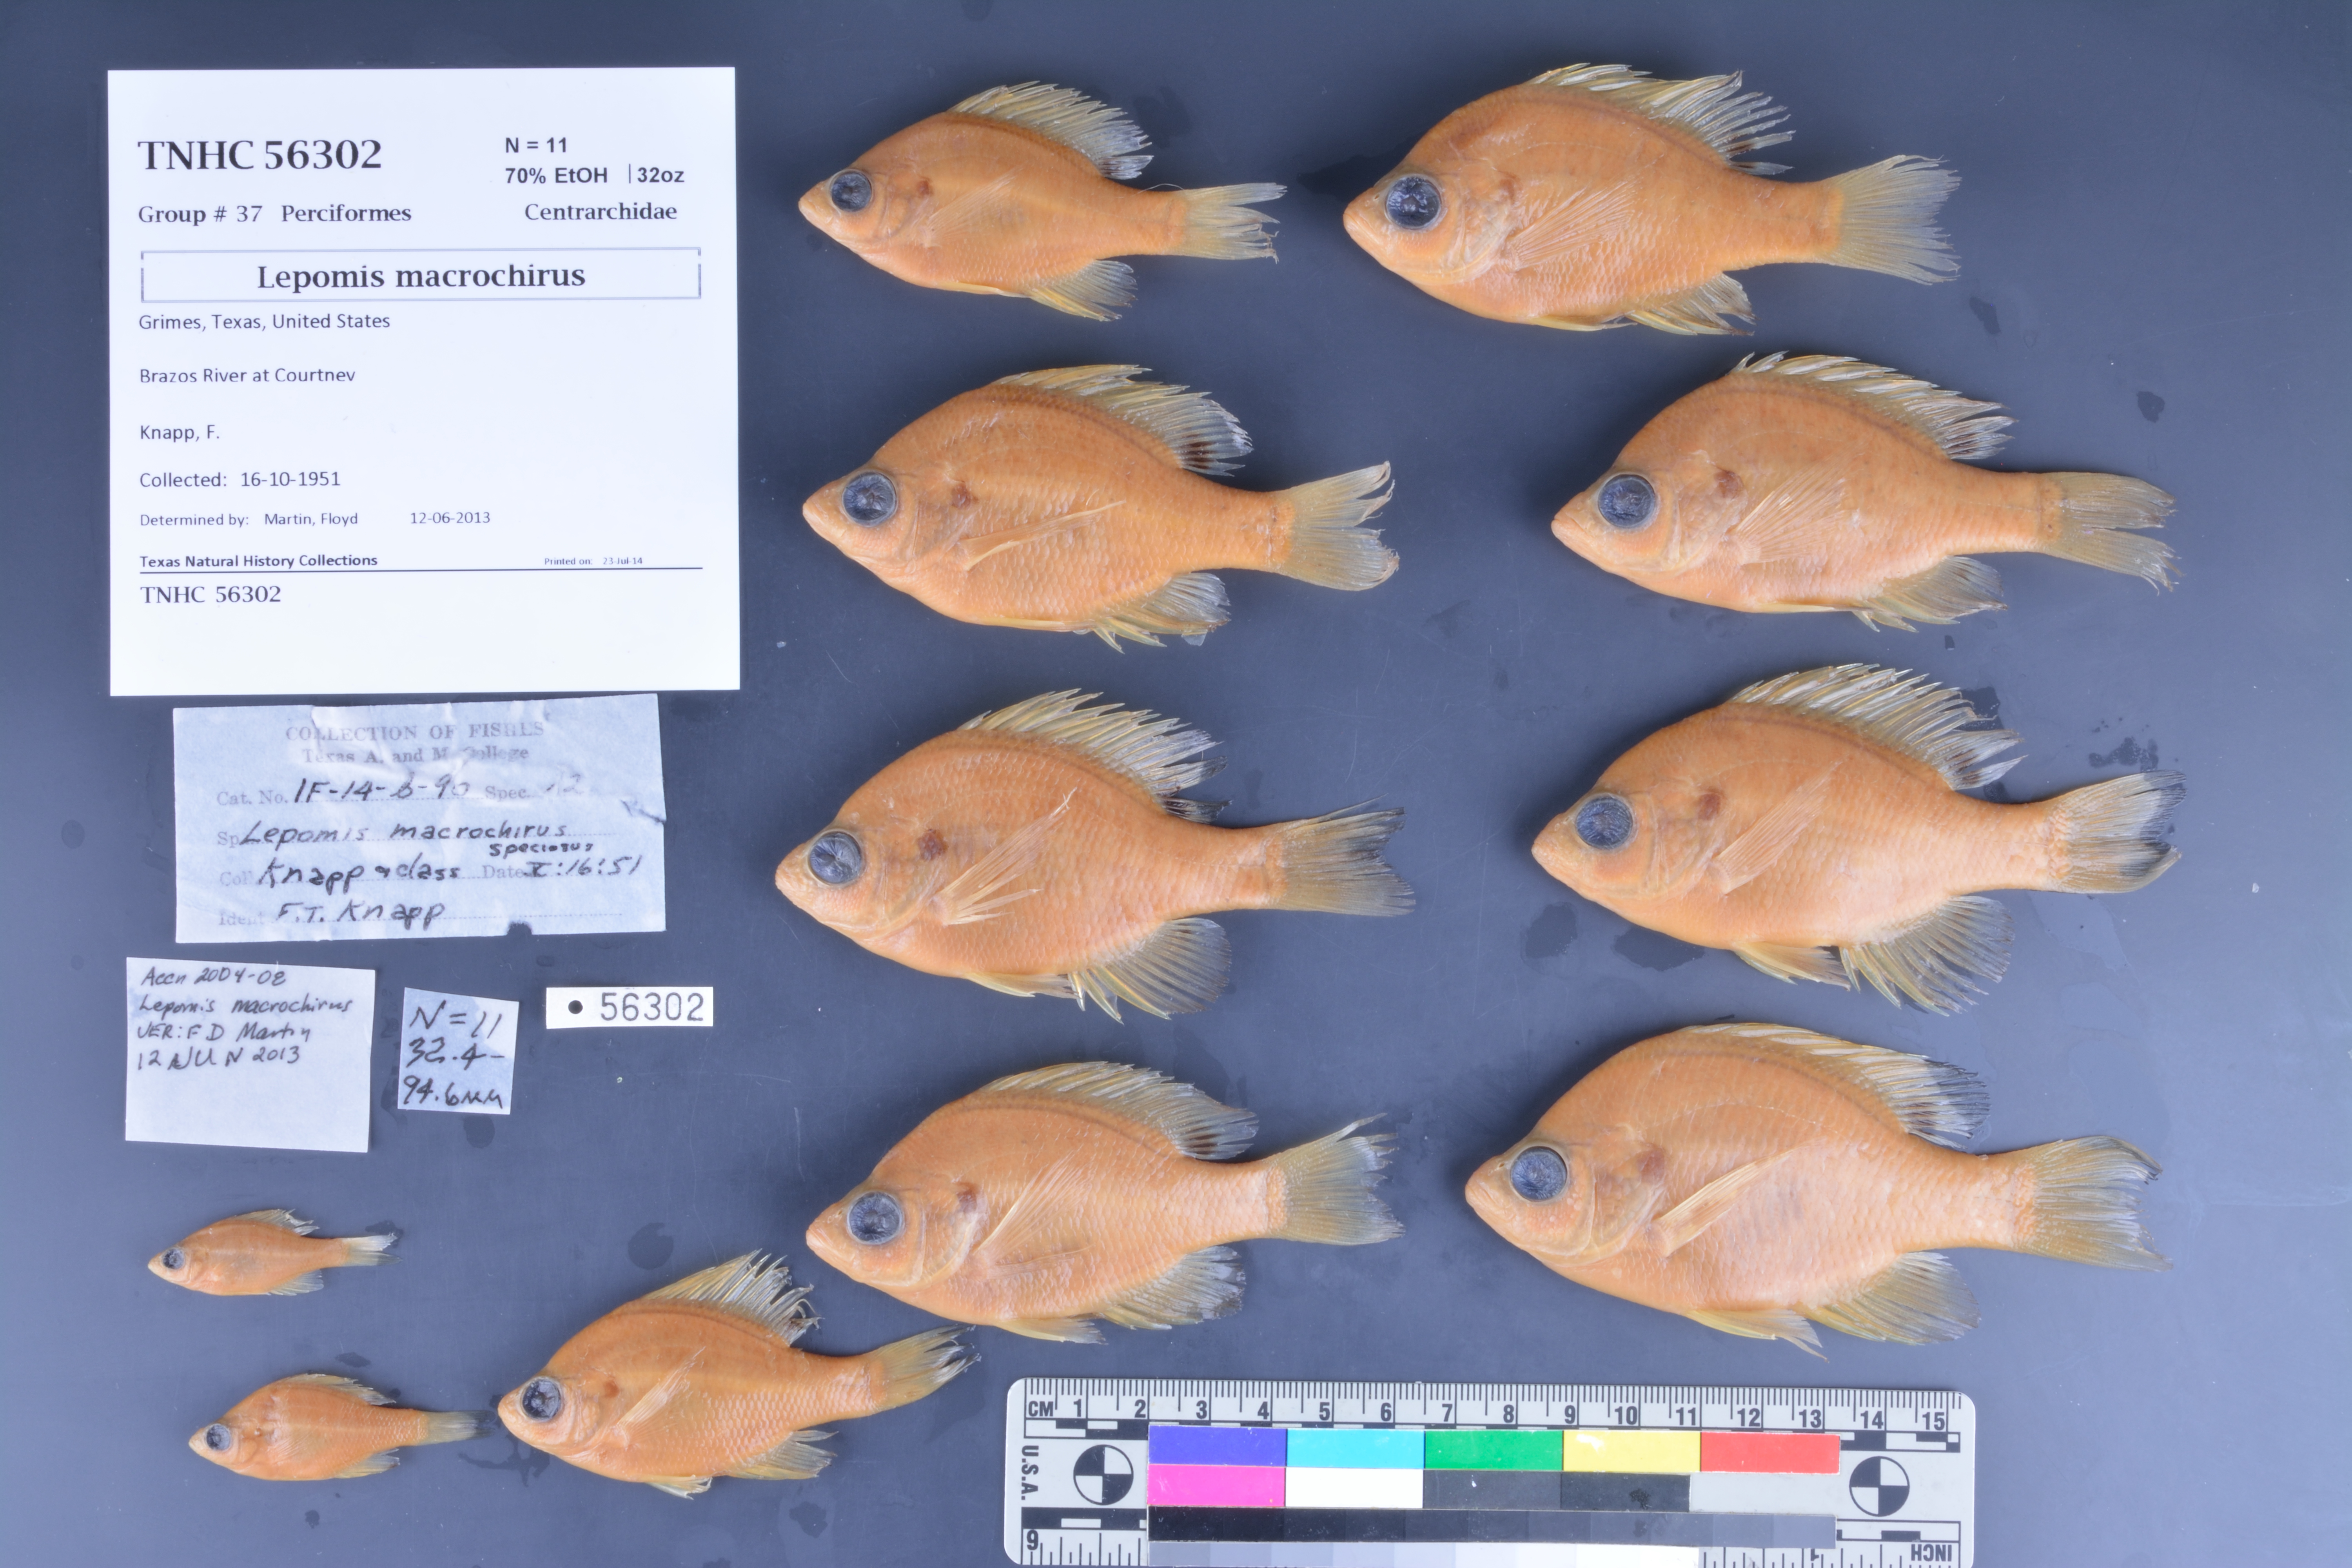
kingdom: Animalia
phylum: Chordata
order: Perciformes
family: Centrarchidae
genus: Lepomis
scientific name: Lepomis macrochirus
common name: Bluegill
